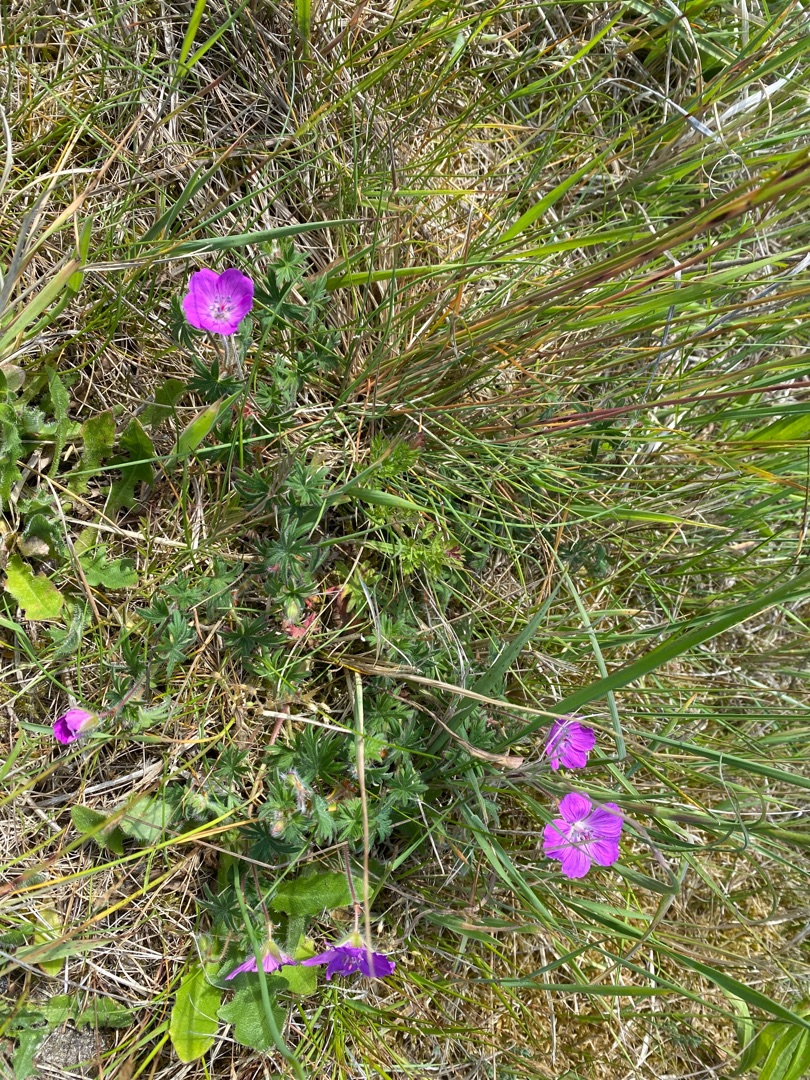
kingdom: Plantae
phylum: Tracheophyta
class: Magnoliopsida
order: Geraniales
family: Geraniaceae
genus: Geranium
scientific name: Geranium sanguineum
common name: Blodrød storkenæb
